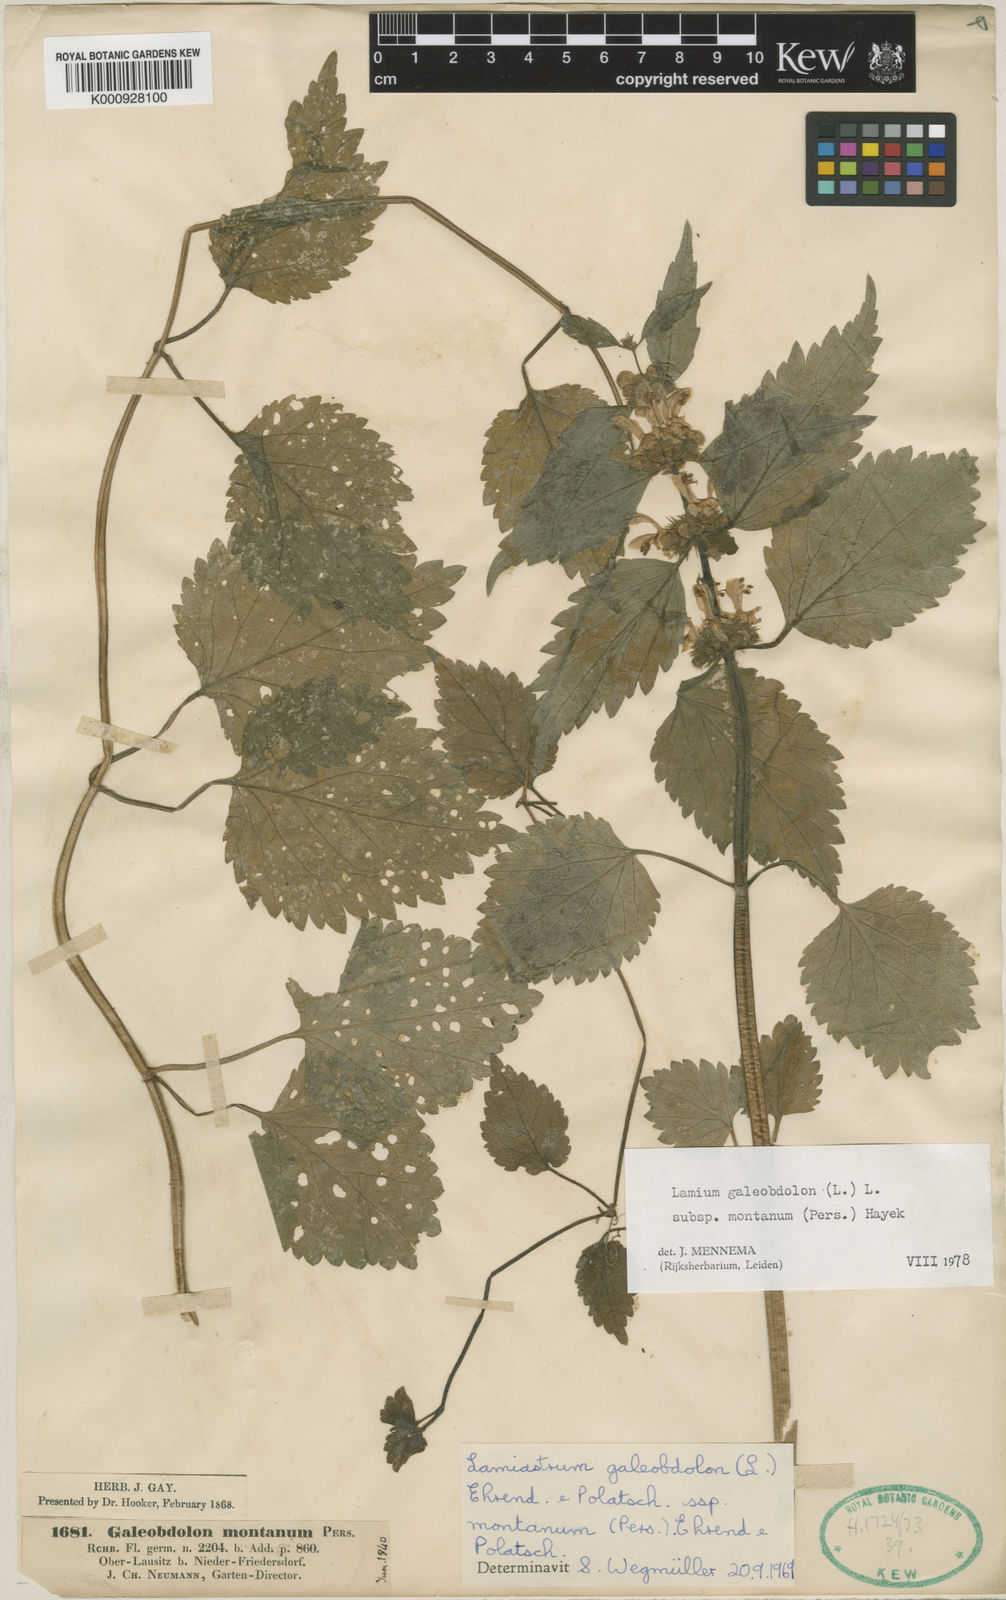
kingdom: Plantae
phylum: Tracheophyta
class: Magnoliopsida
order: Lamiales
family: Lamiaceae
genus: Lamium
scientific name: Lamium galeobdolon
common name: Yellow archangel
